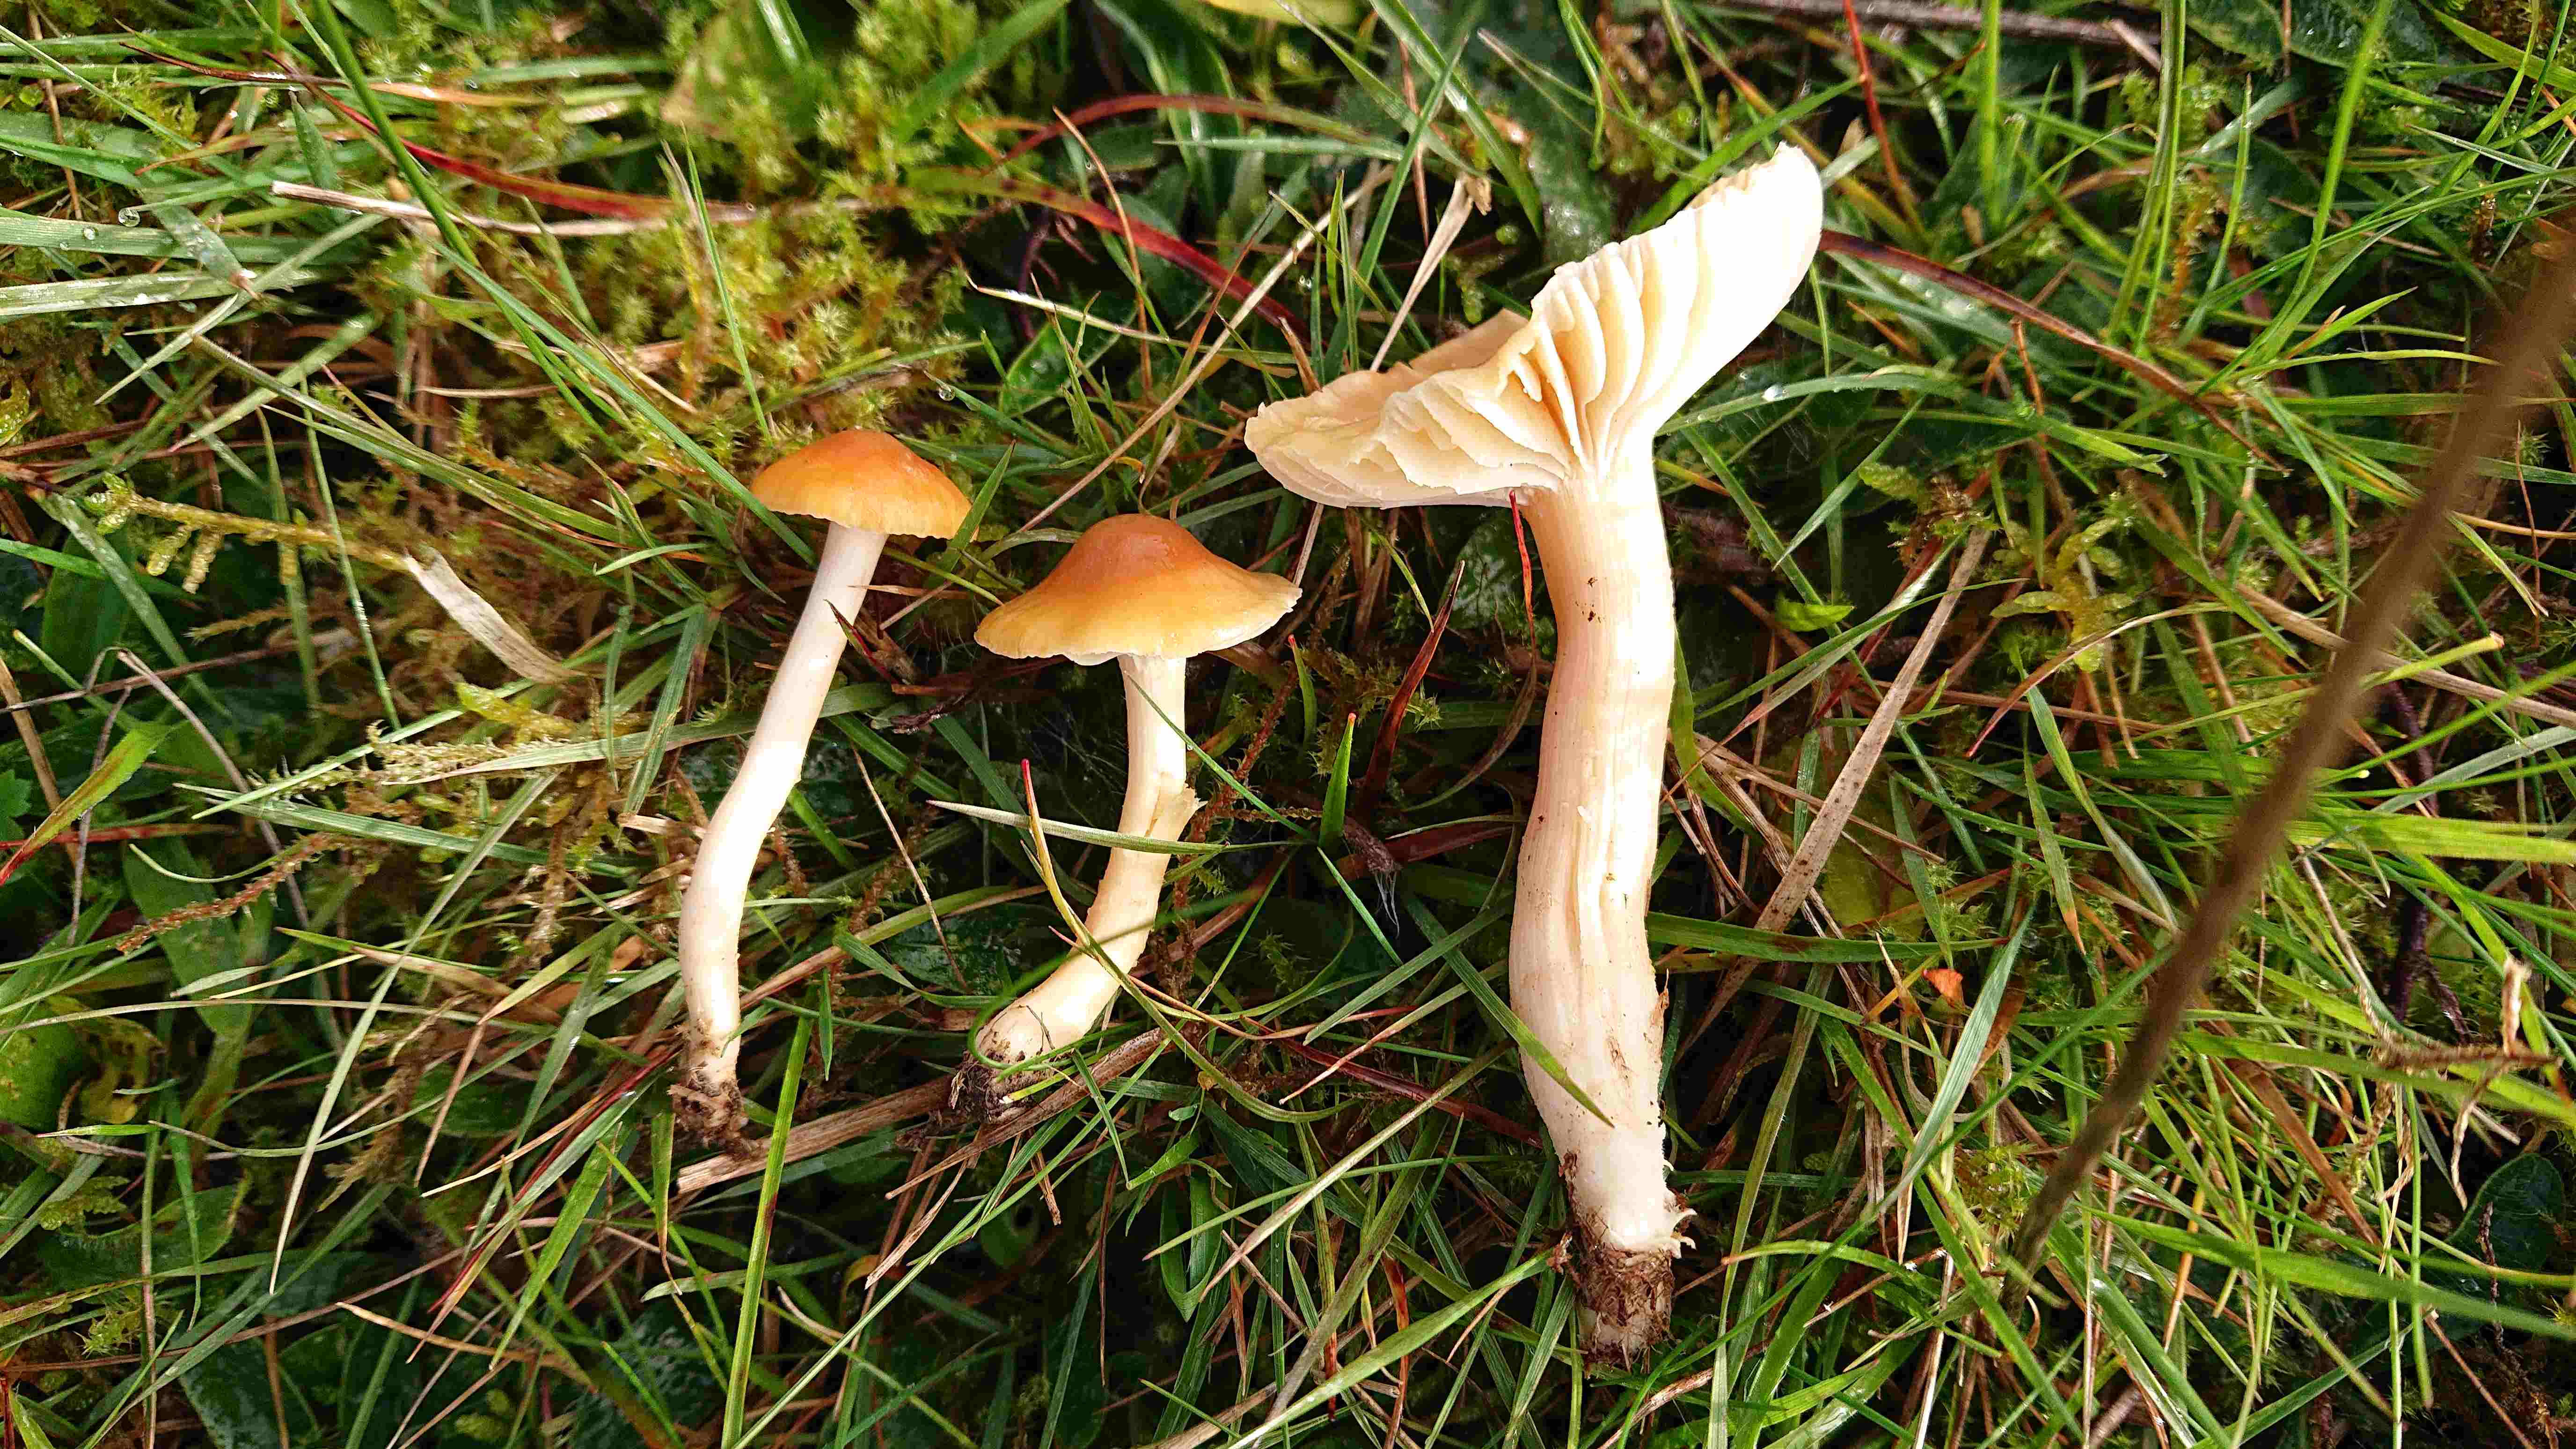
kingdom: Fungi
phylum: Basidiomycota
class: Agaricomycetes
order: Agaricales
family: Hygrophoraceae
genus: Cuphophyllus
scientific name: Cuphophyllus pratensis
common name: eng-vokshat
